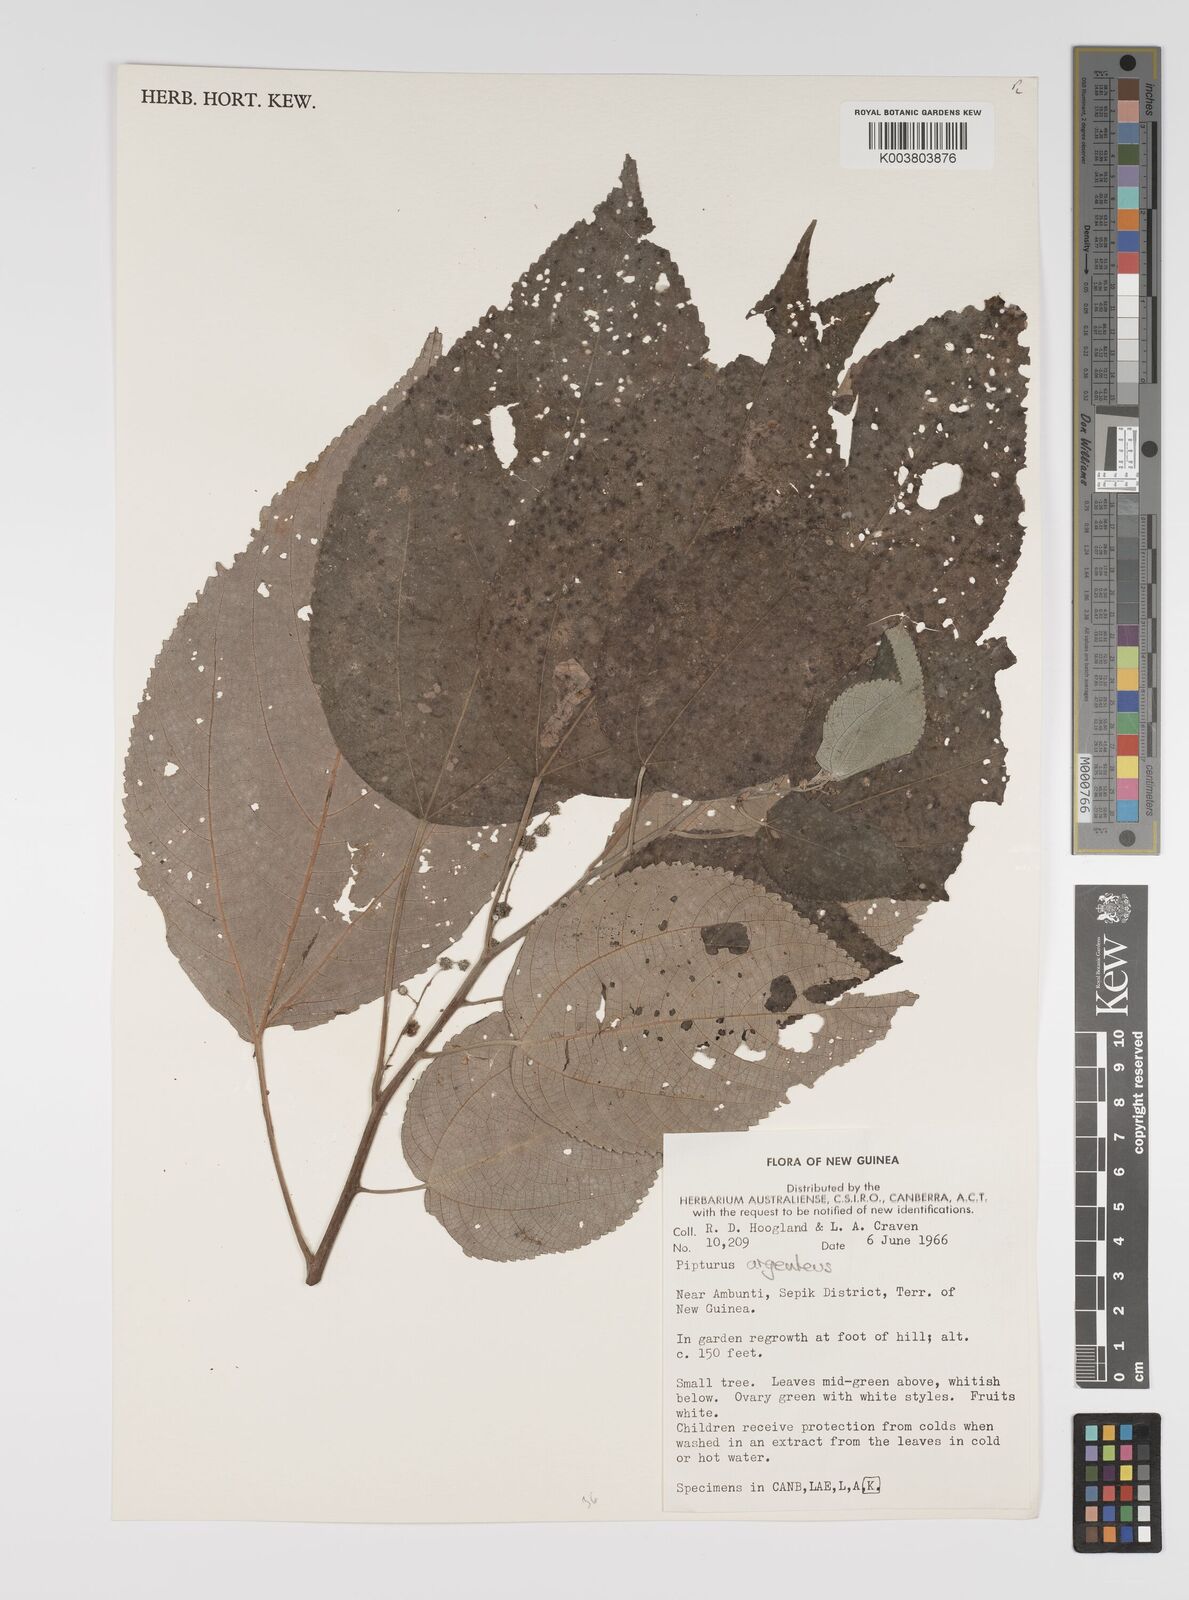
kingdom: Plantae
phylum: Tracheophyta
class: Magnoliopsida
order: Rosales
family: Urticaceae
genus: Pipturus
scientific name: Pipturus argenteus
